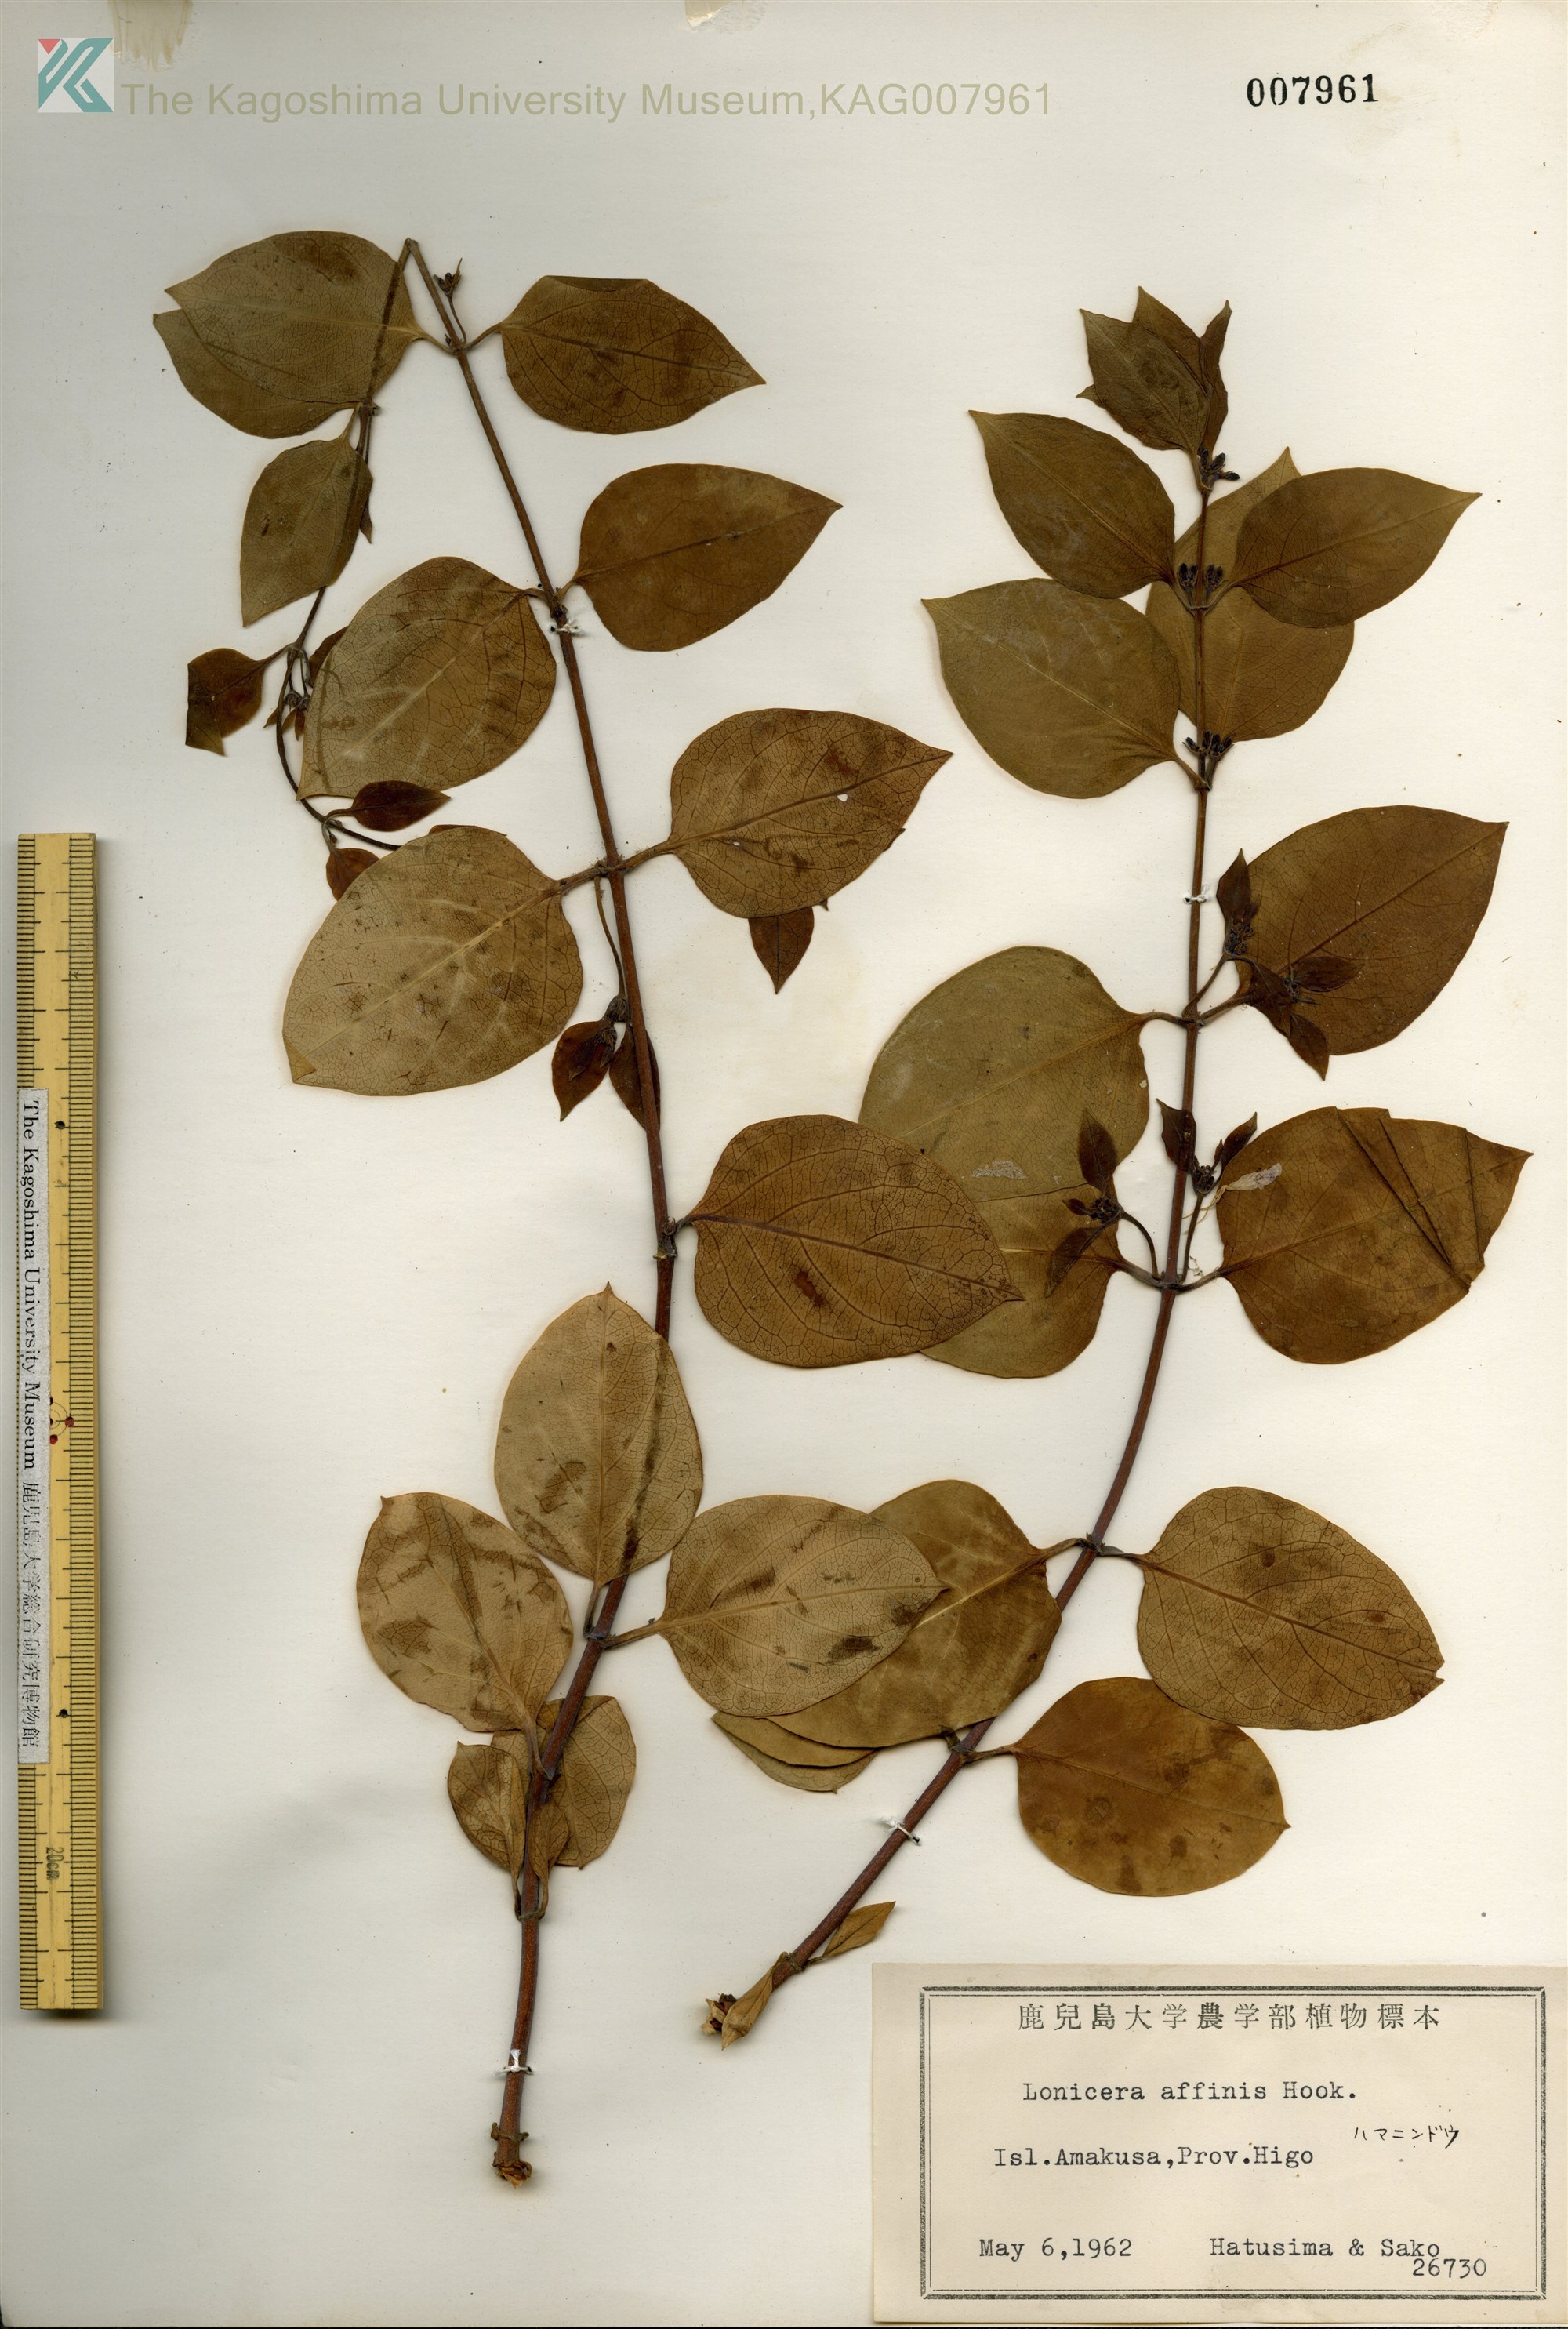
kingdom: Plantae
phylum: Tracheophyta
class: Magnoliopsida
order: Dipsacales
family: Caprifoliaceae
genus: Lonicera
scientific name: Lonicera affinis
